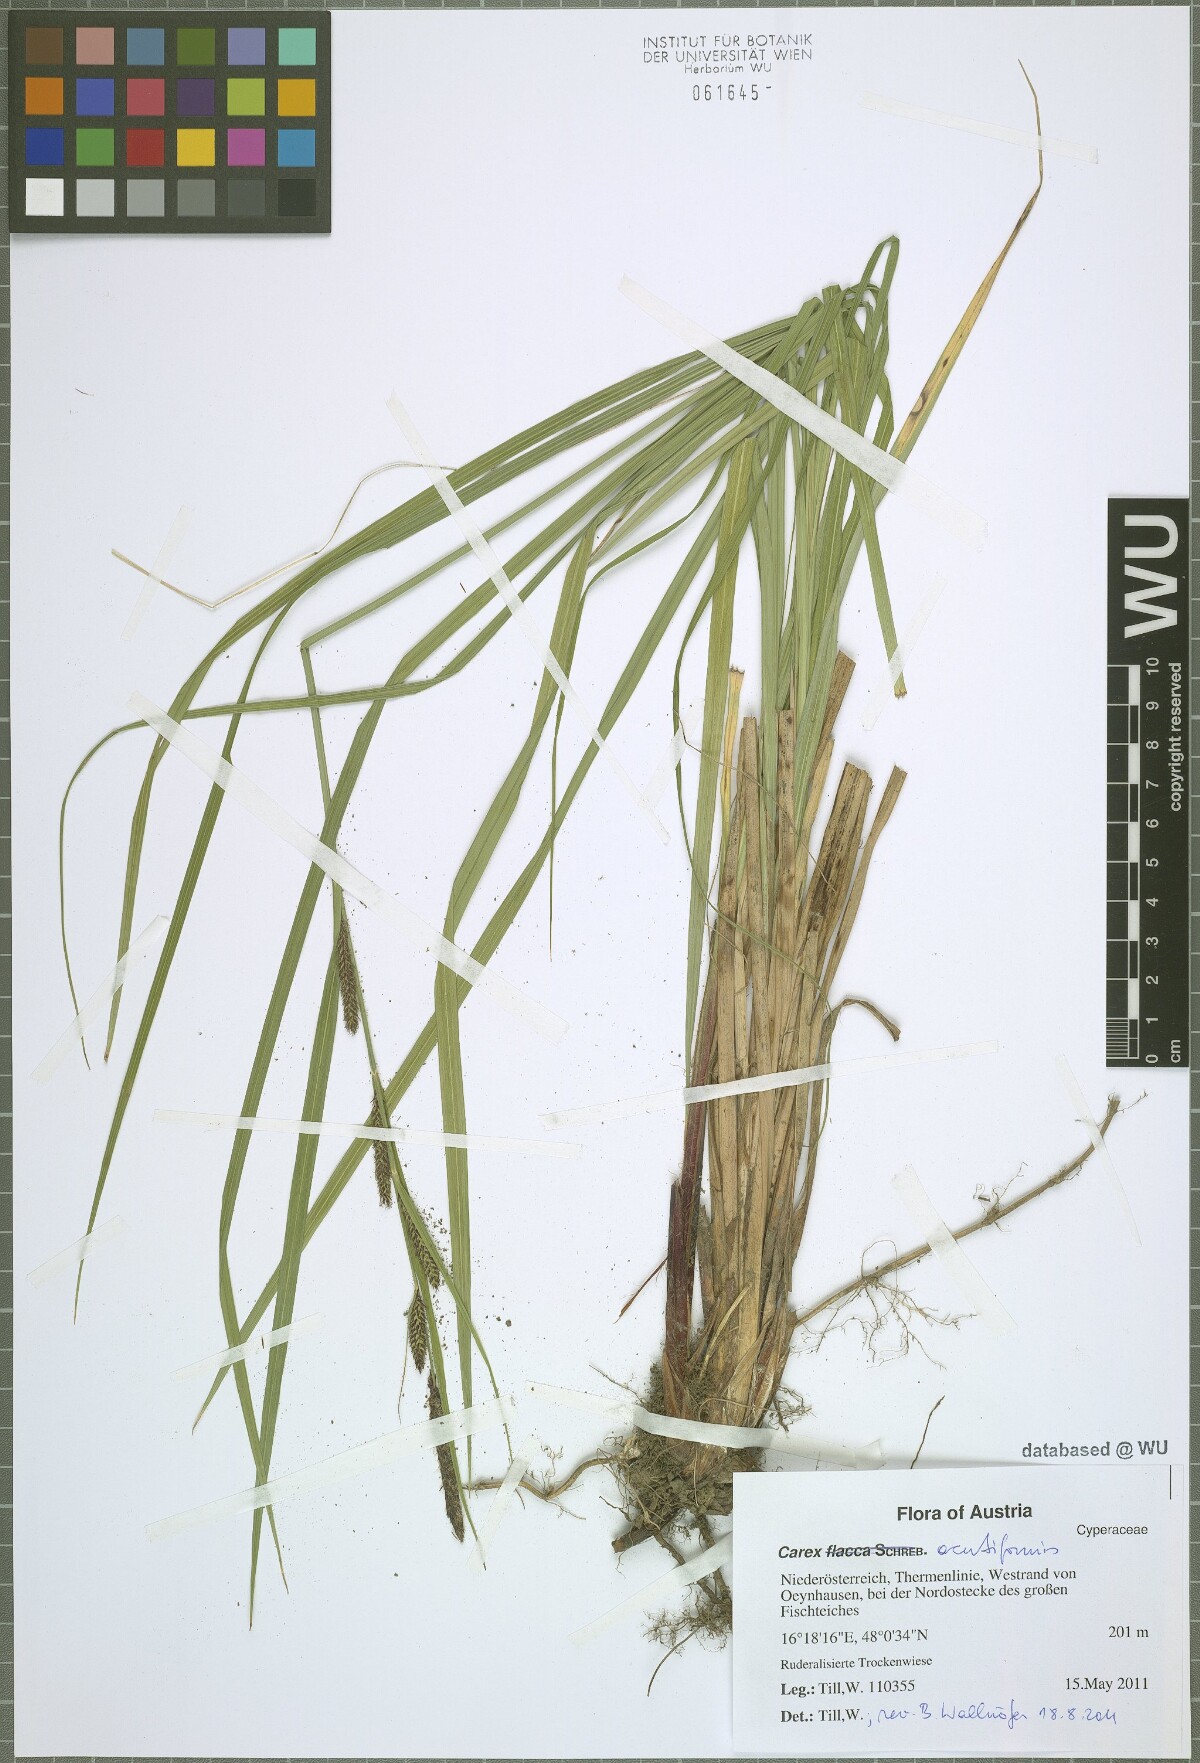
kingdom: Plantae
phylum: Tracheophyta
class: Liliopsida
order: Poales
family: Cyperaceae
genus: Carex
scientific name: Carex acutiformis
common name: Lesser pond-sedge
